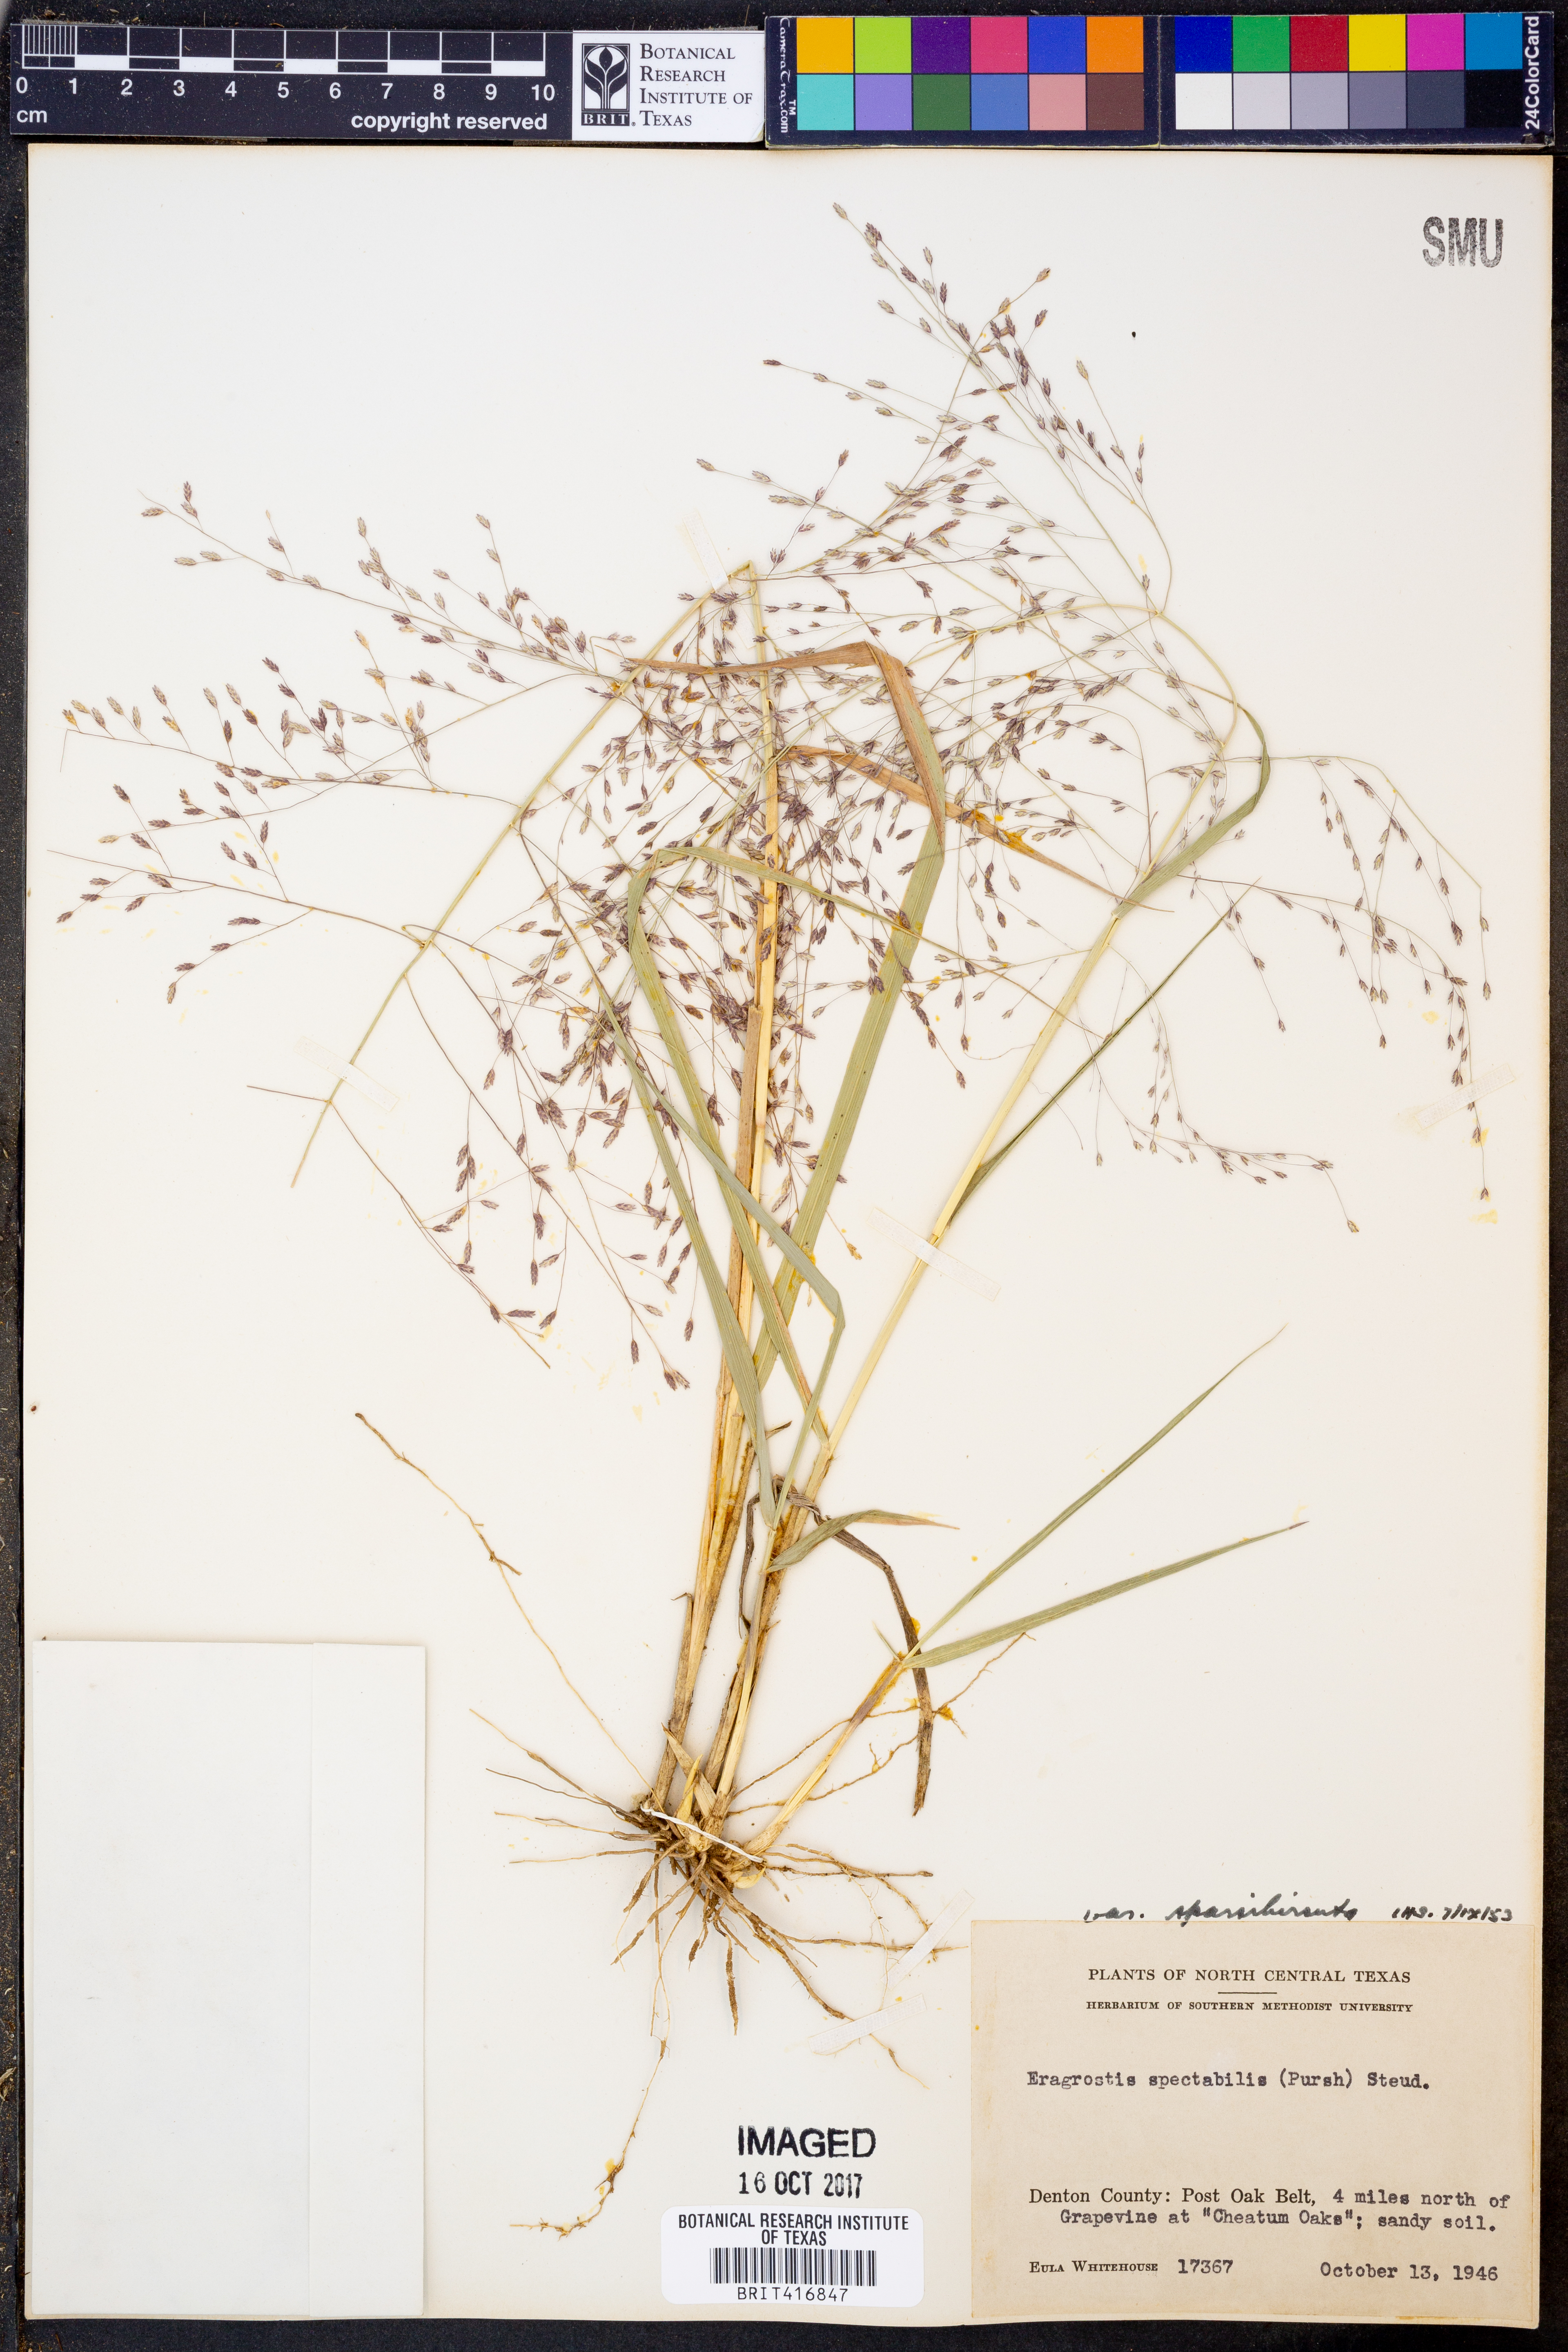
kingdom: Plantae
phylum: Tracheophyta
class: Liliopsida
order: Poales
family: Poaceae
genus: Eragrostis
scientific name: Eragrostis spectabilis
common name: Petticoat-climber
